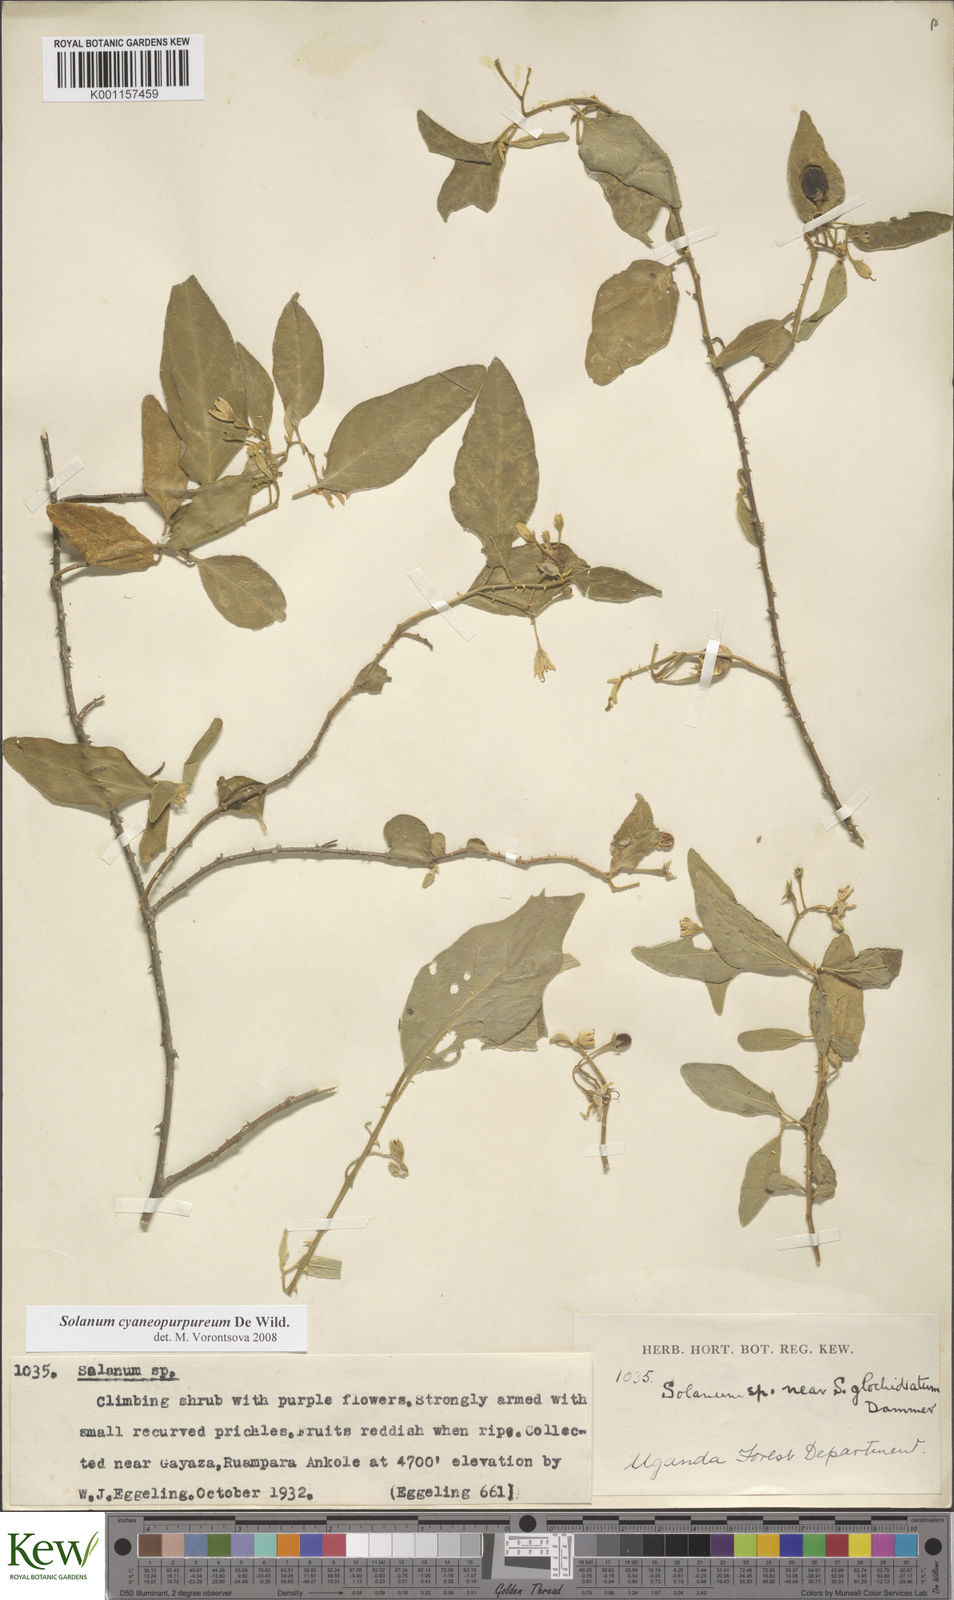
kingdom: Plantae
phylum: Tracheophyta
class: Magnoliopsida
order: Solanales
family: Solanaceae
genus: Solanum
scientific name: Solanum cyaneopurpureum
